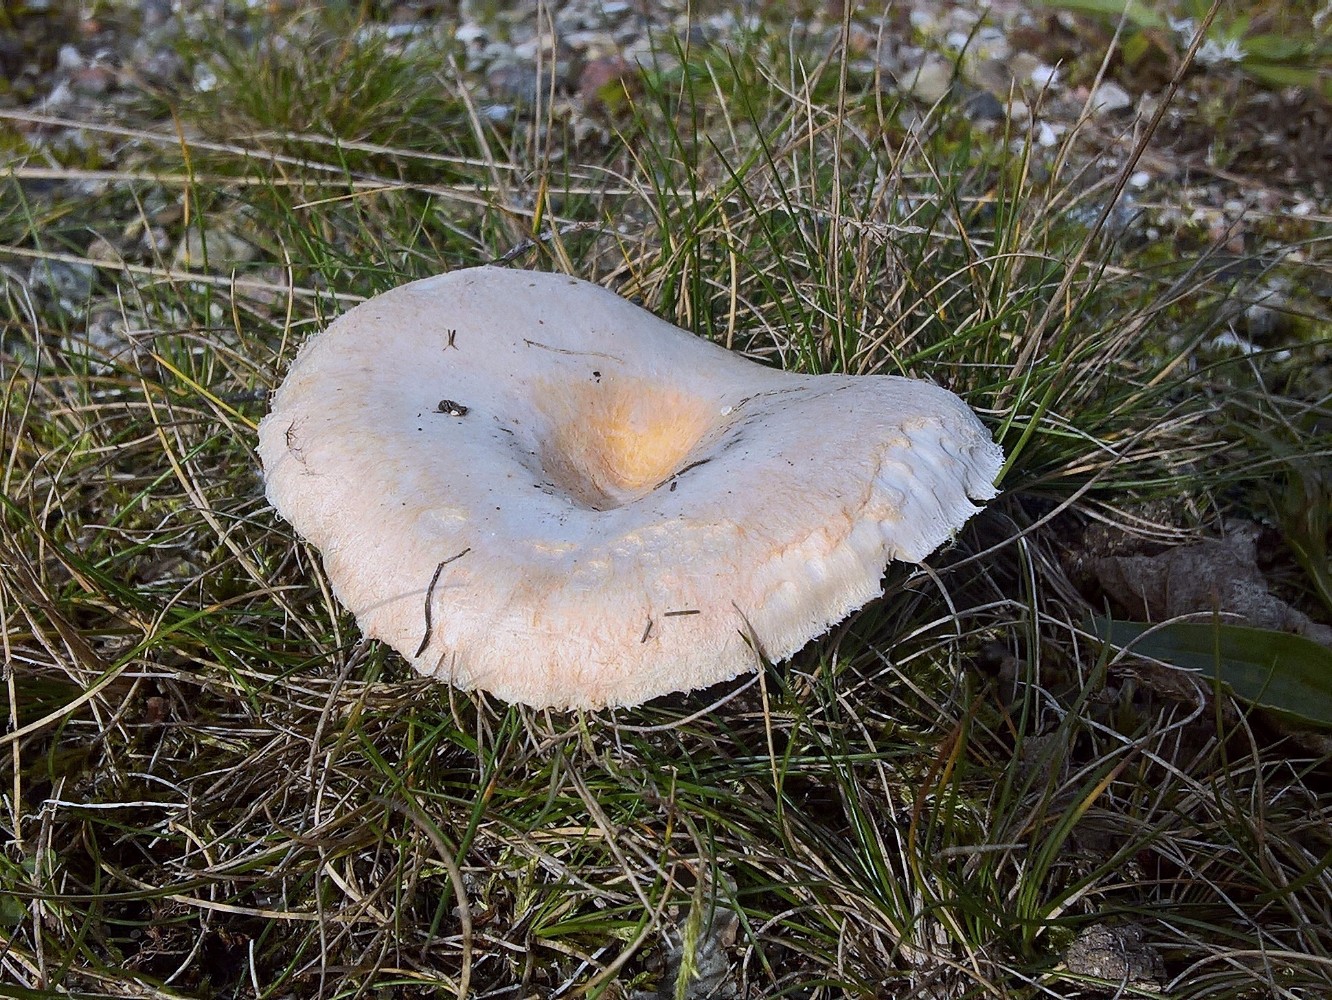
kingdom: Fungi
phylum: Basidiomycota
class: Agaricomycetes
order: Russulales
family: Russulaceae
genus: Lactarius
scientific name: Lactarius pubescens
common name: dunet mælkehat
